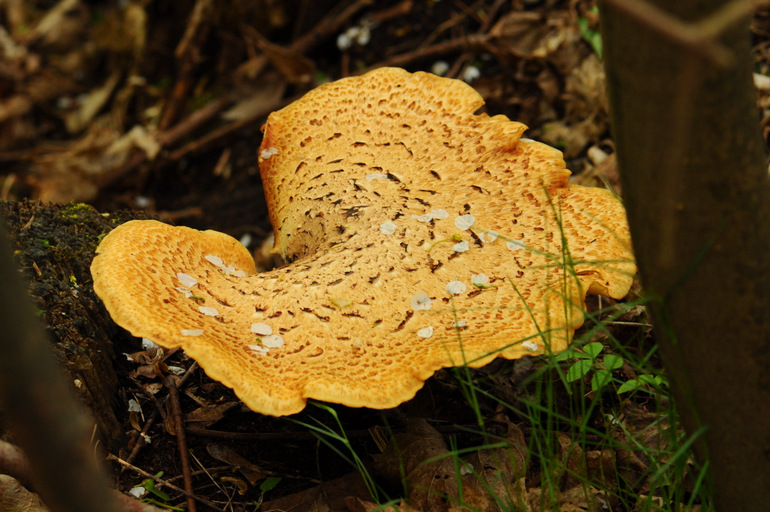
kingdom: Fungi
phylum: Basidiomycota
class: Agaricomycetes
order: Polyporales
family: Polyporaceae
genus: Cerioporus
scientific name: Cerioporus squamosus
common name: skællet stilkporesvamp
